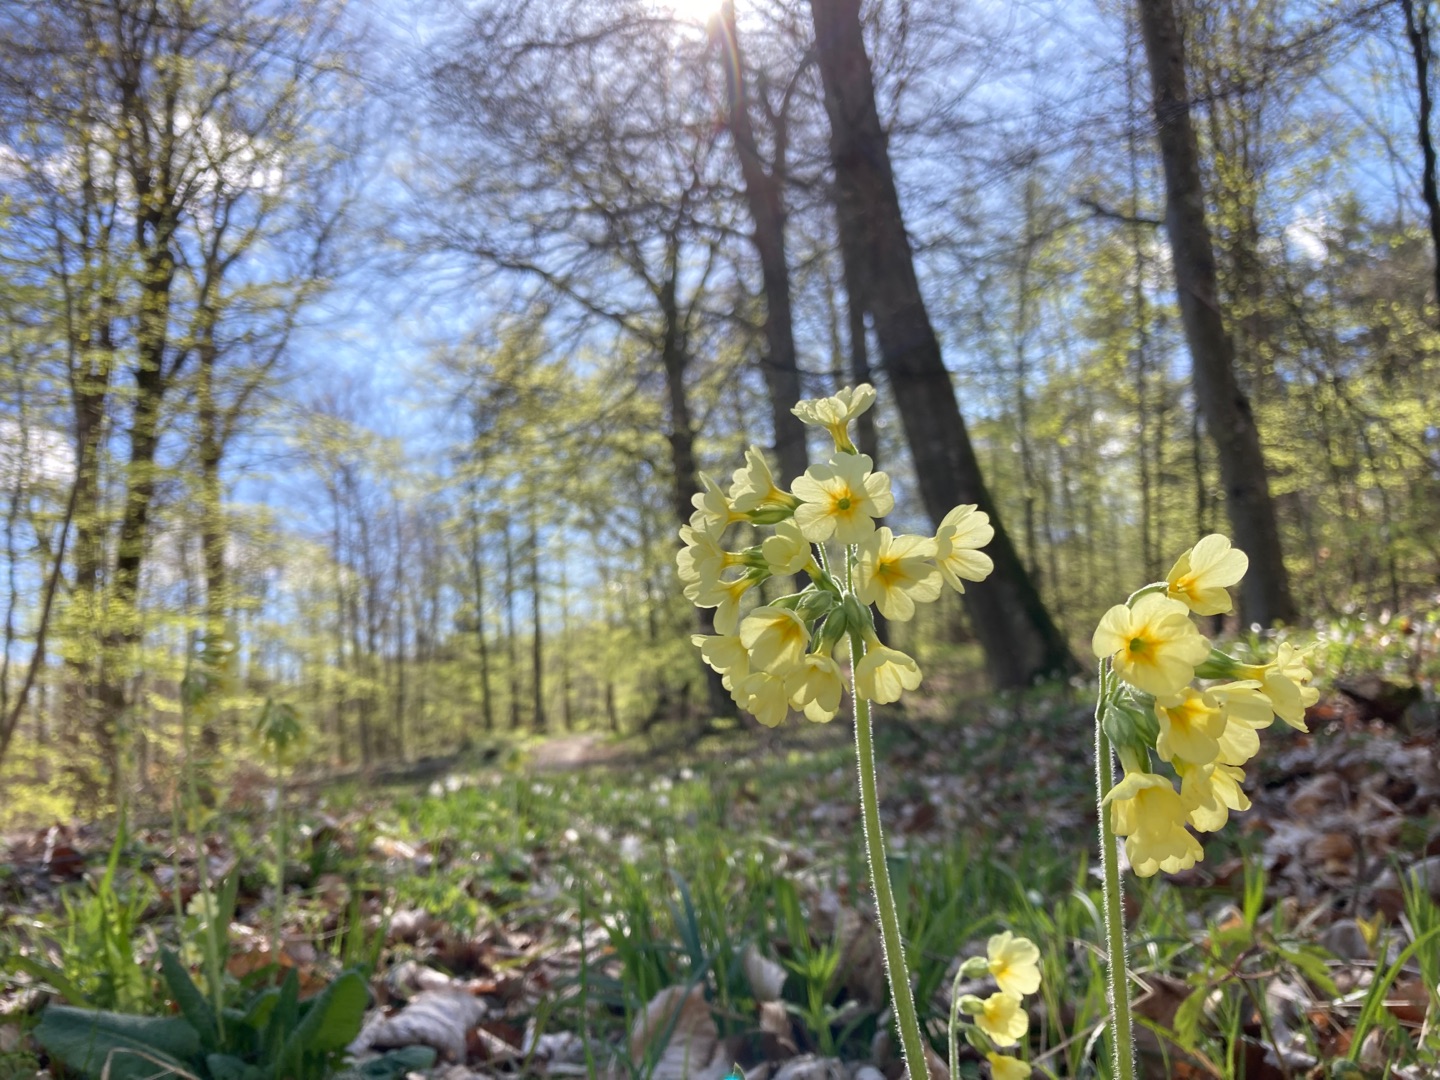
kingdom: Plantae
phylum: Tracheophyta
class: Magnoliopsida
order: Ericales
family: Primulaceae
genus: Primula
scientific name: Primula elatior
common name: Fladkravet kodriver
